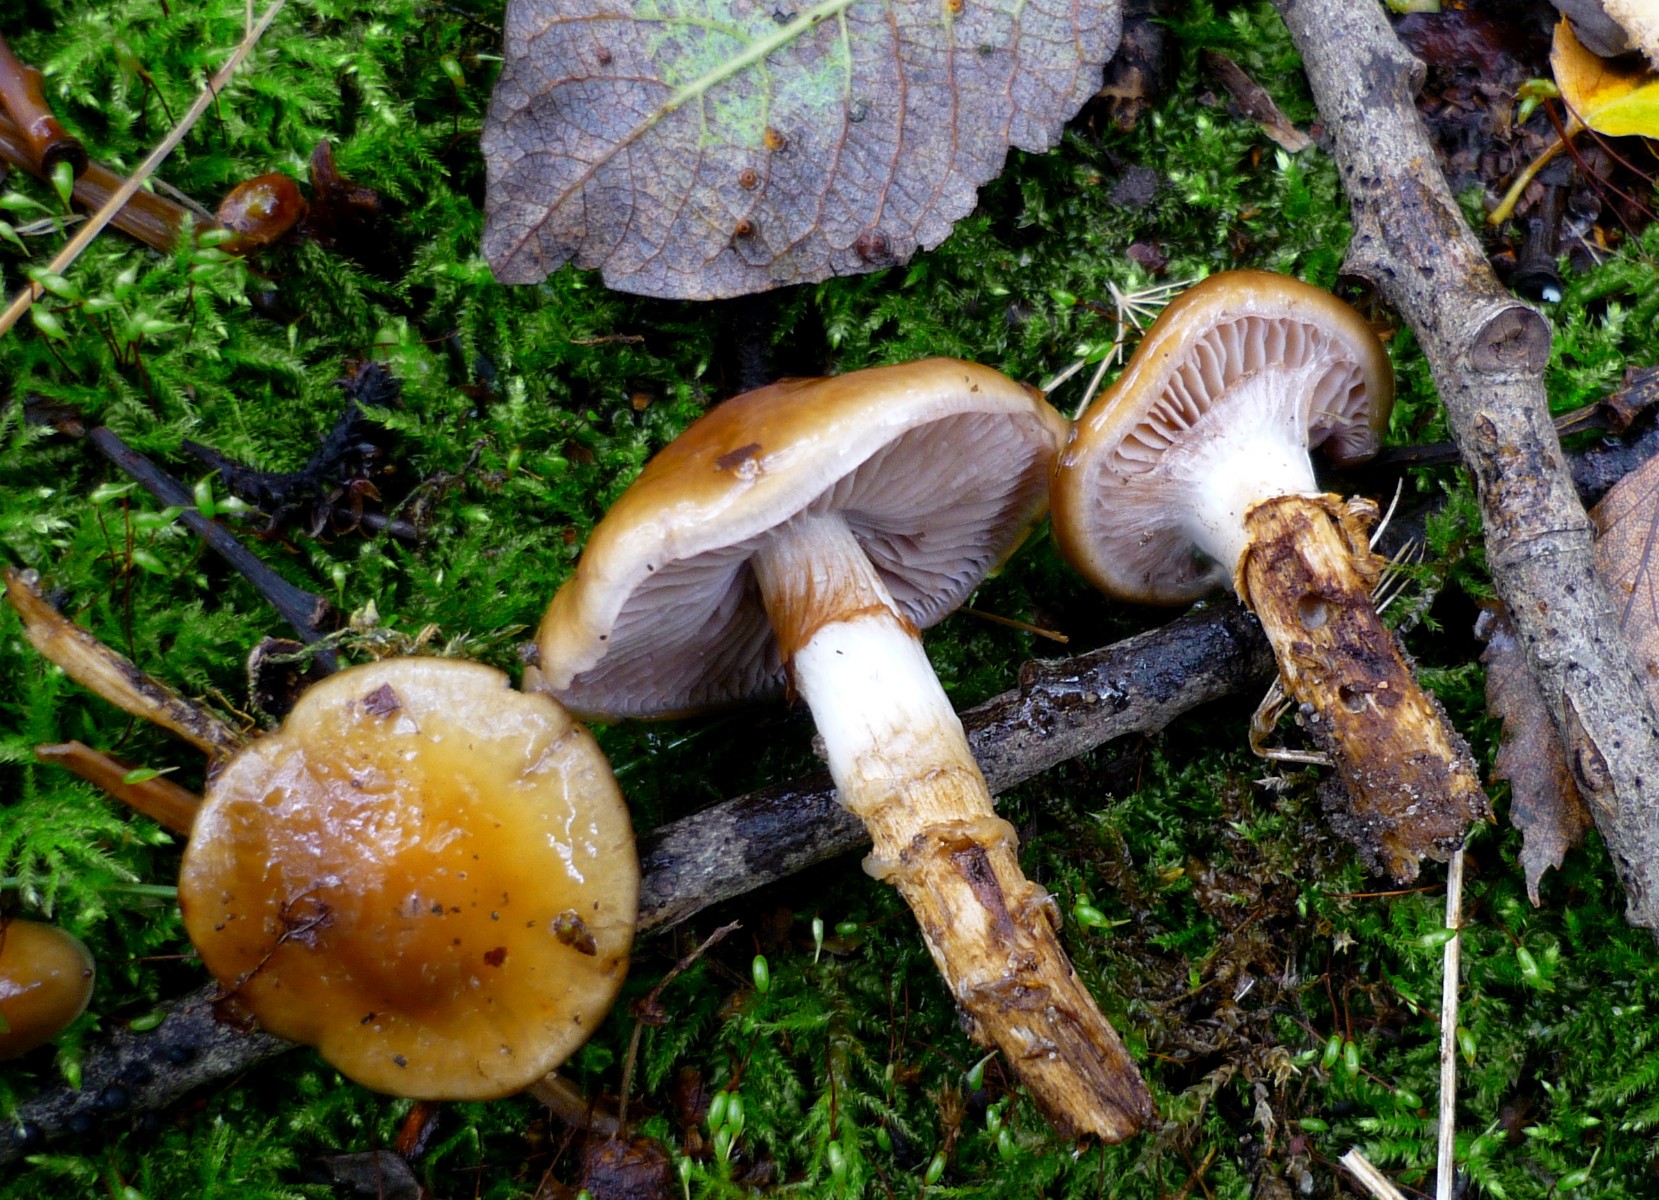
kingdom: Fungi
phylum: Basidiomycota
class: Agaricomycetes
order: Agaricales
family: Cortinariaceae
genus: Cortinarius
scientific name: Cortinarius trivialis
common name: brunslimet slørhat
